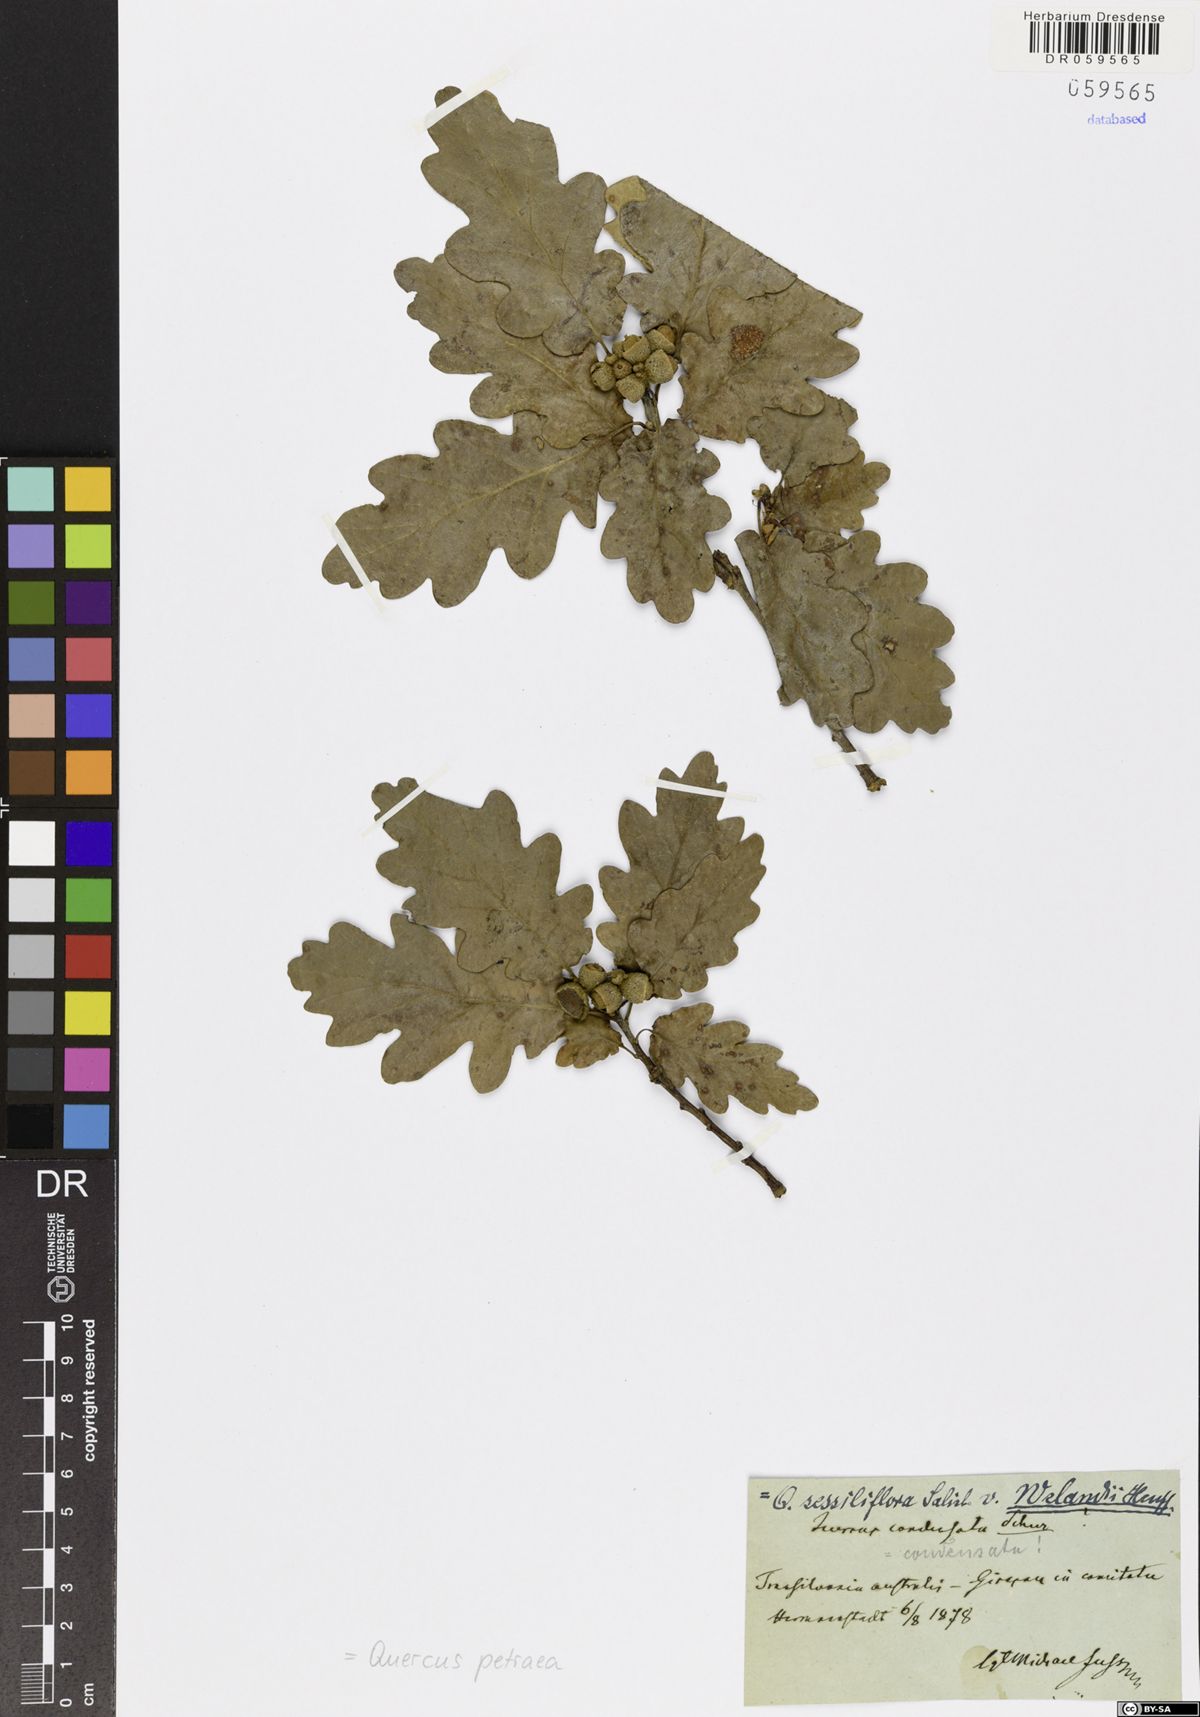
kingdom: Plantae
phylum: Tracheophyta
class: Magnoliopsida
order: Fagales
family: Fagaceae
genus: Quercus
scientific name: Quercus petraea
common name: Sessile oak
